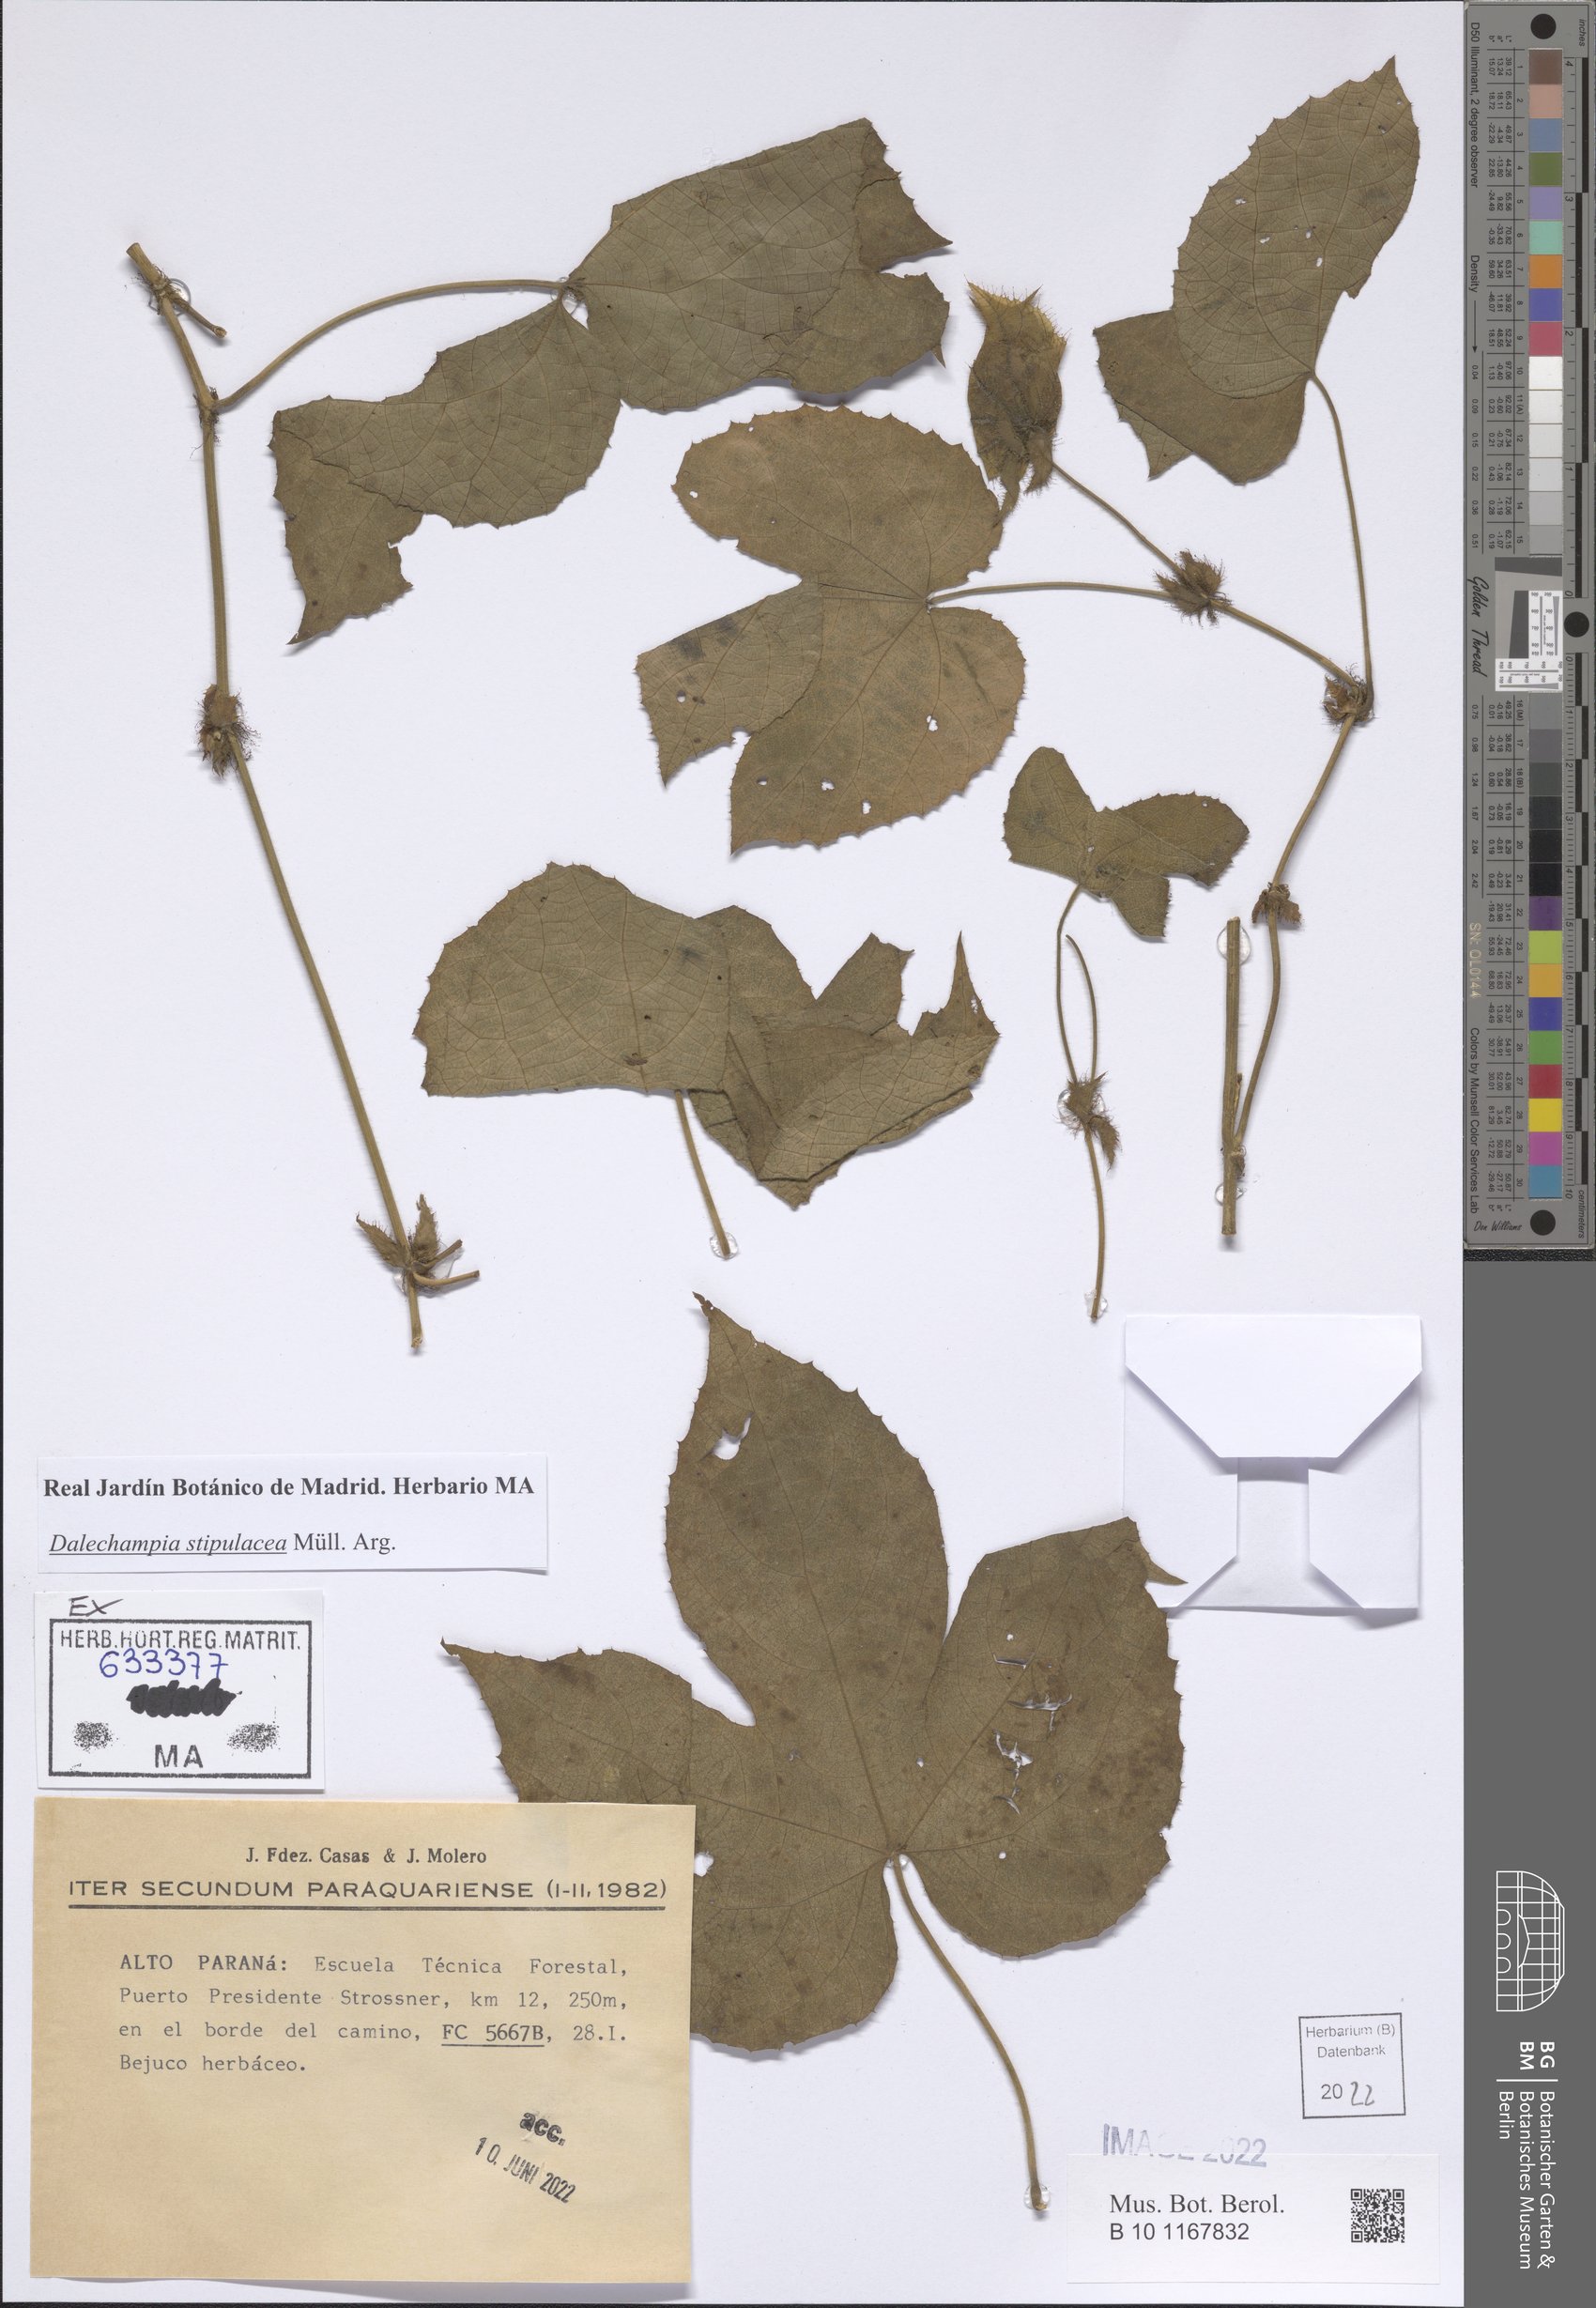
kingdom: Plantae
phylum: Tracheophyta
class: Magnoliopsida
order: Malpighiales
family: Euphorbiaceae
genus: Dalechampia
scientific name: Dalechampia stipulacea
